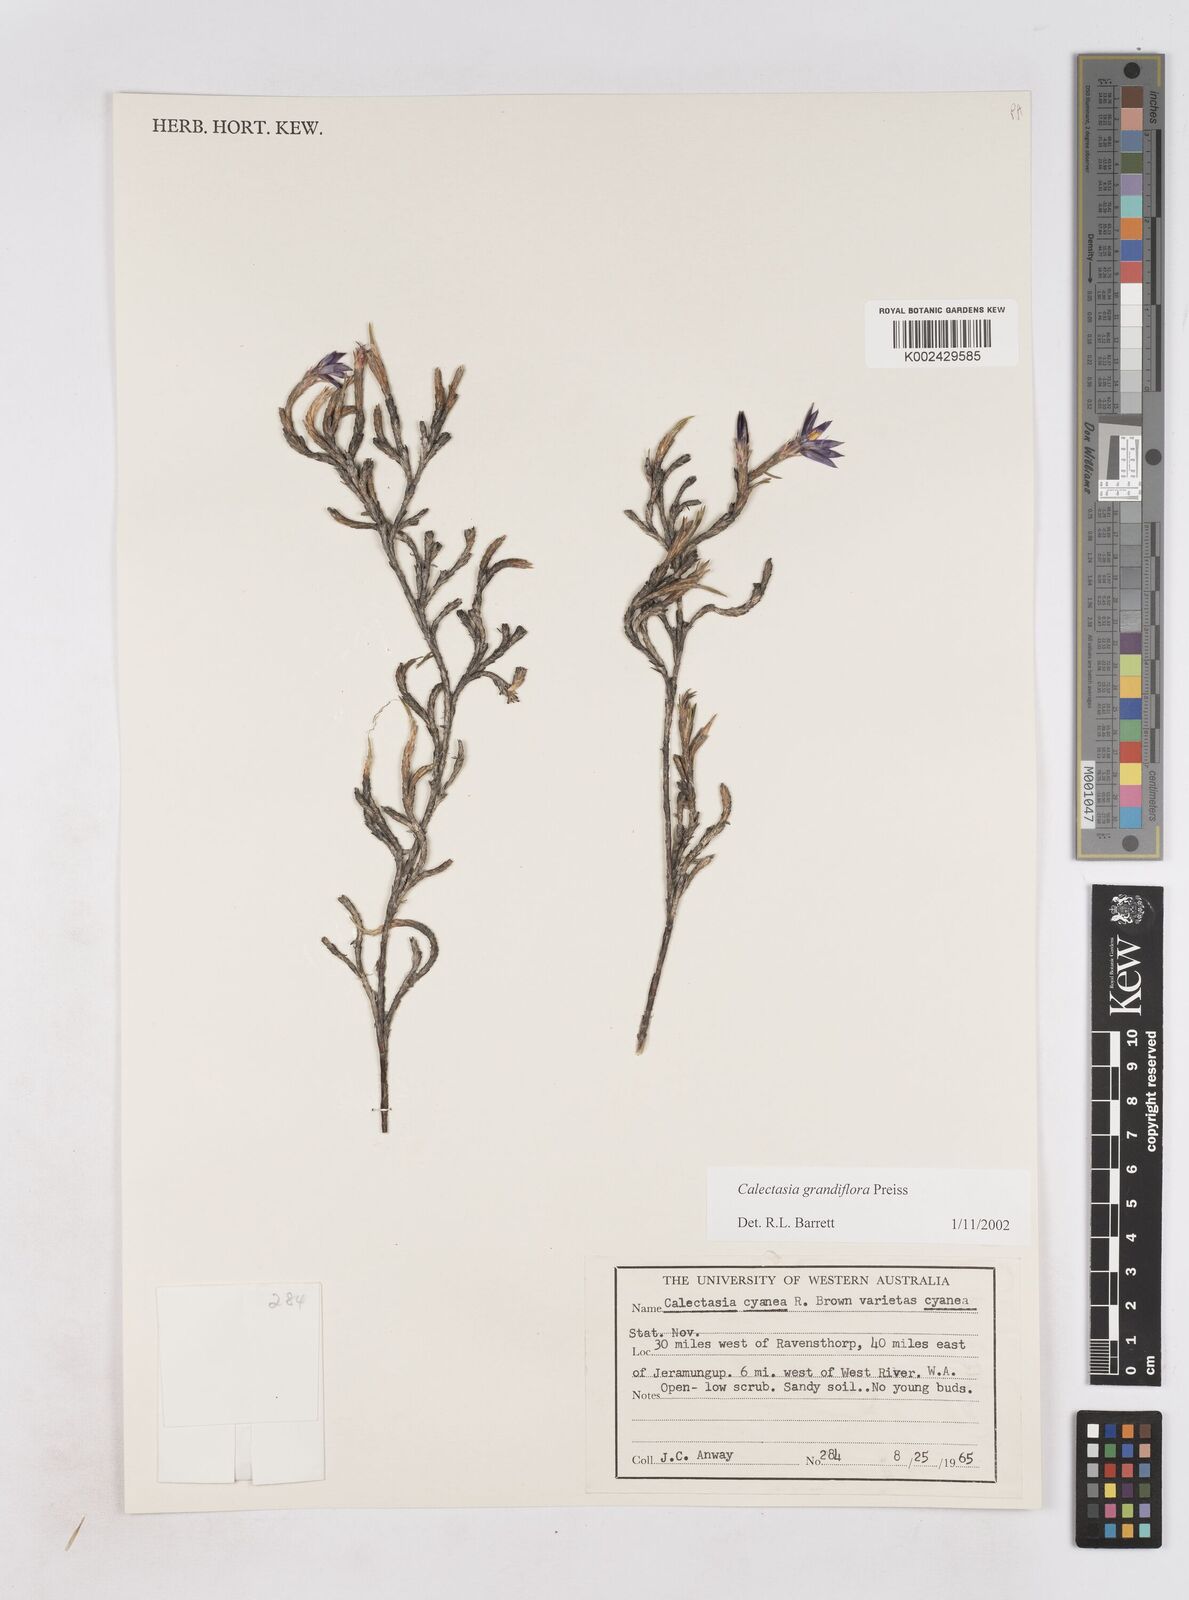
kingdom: Plantae
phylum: Tracheophyta
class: Liliopsida
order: Arecales
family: Dasypogonaceae
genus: Calectasia
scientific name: Calectasia grandiflora
